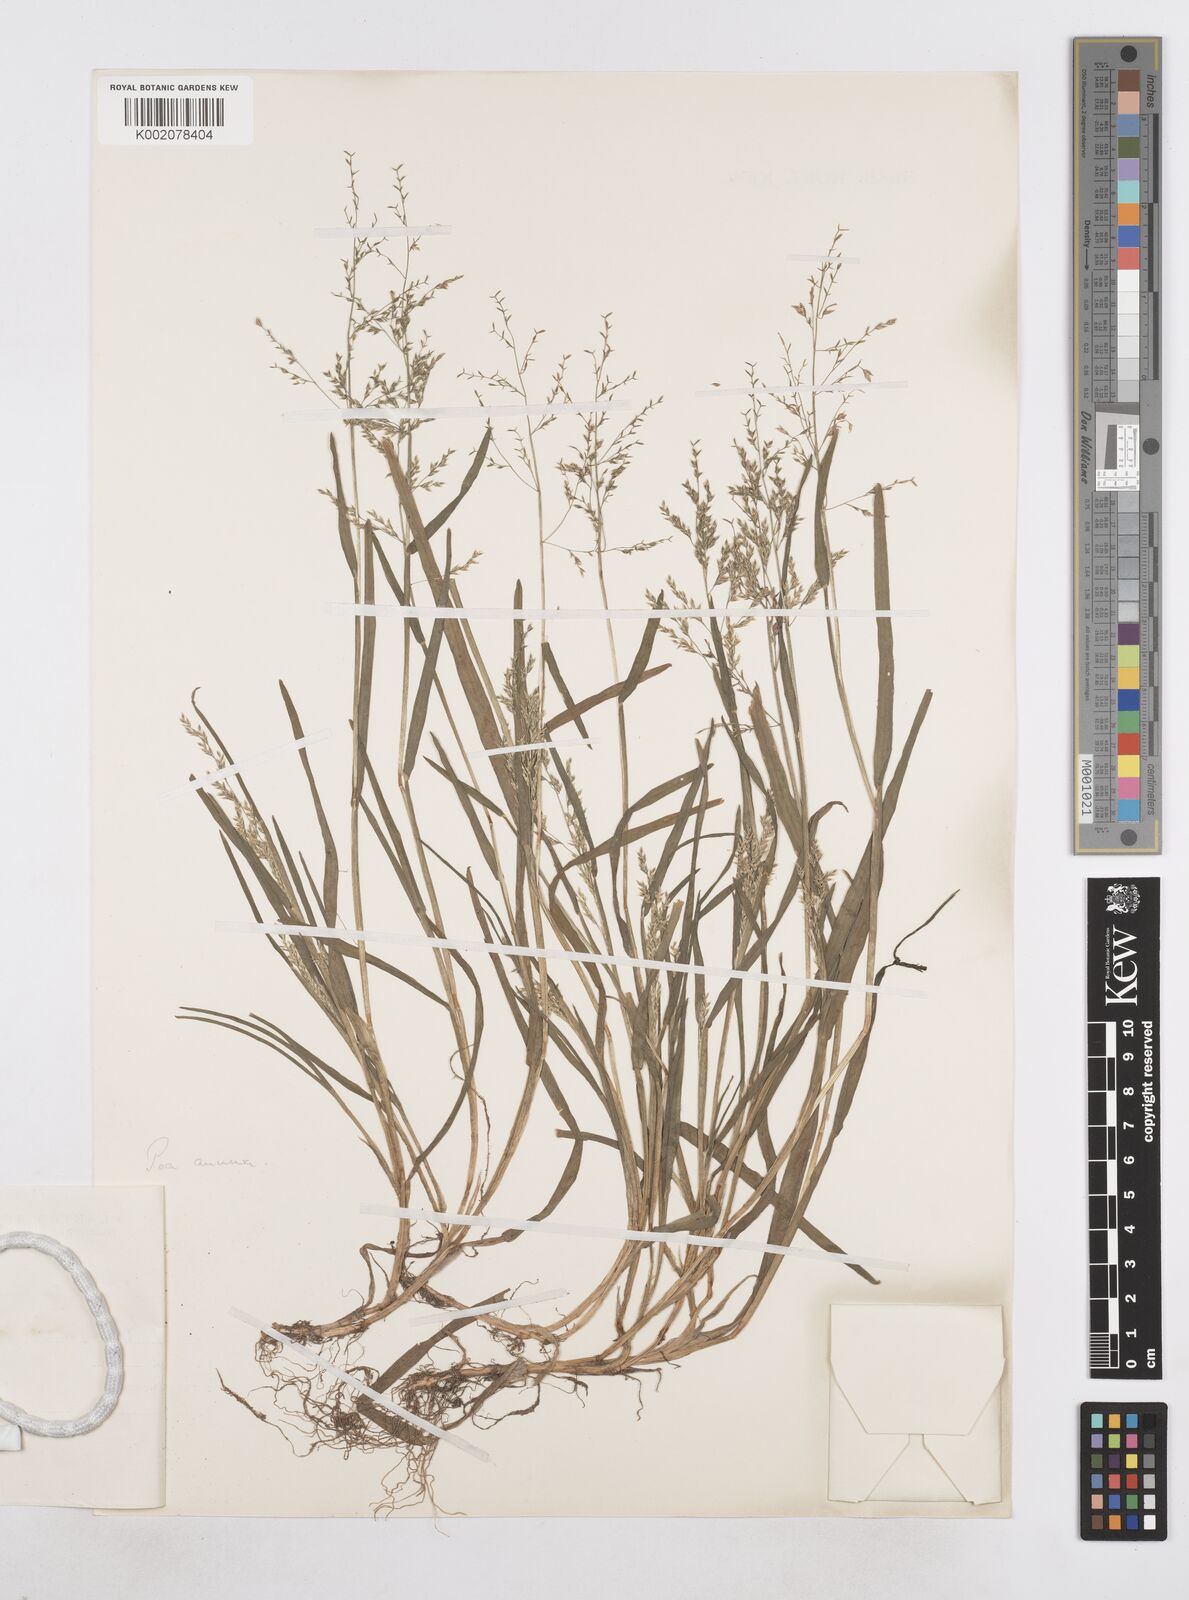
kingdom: Plantae
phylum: Tracheophyta
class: Liliopsida
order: Poales
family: Poaceae
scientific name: Poaceae
